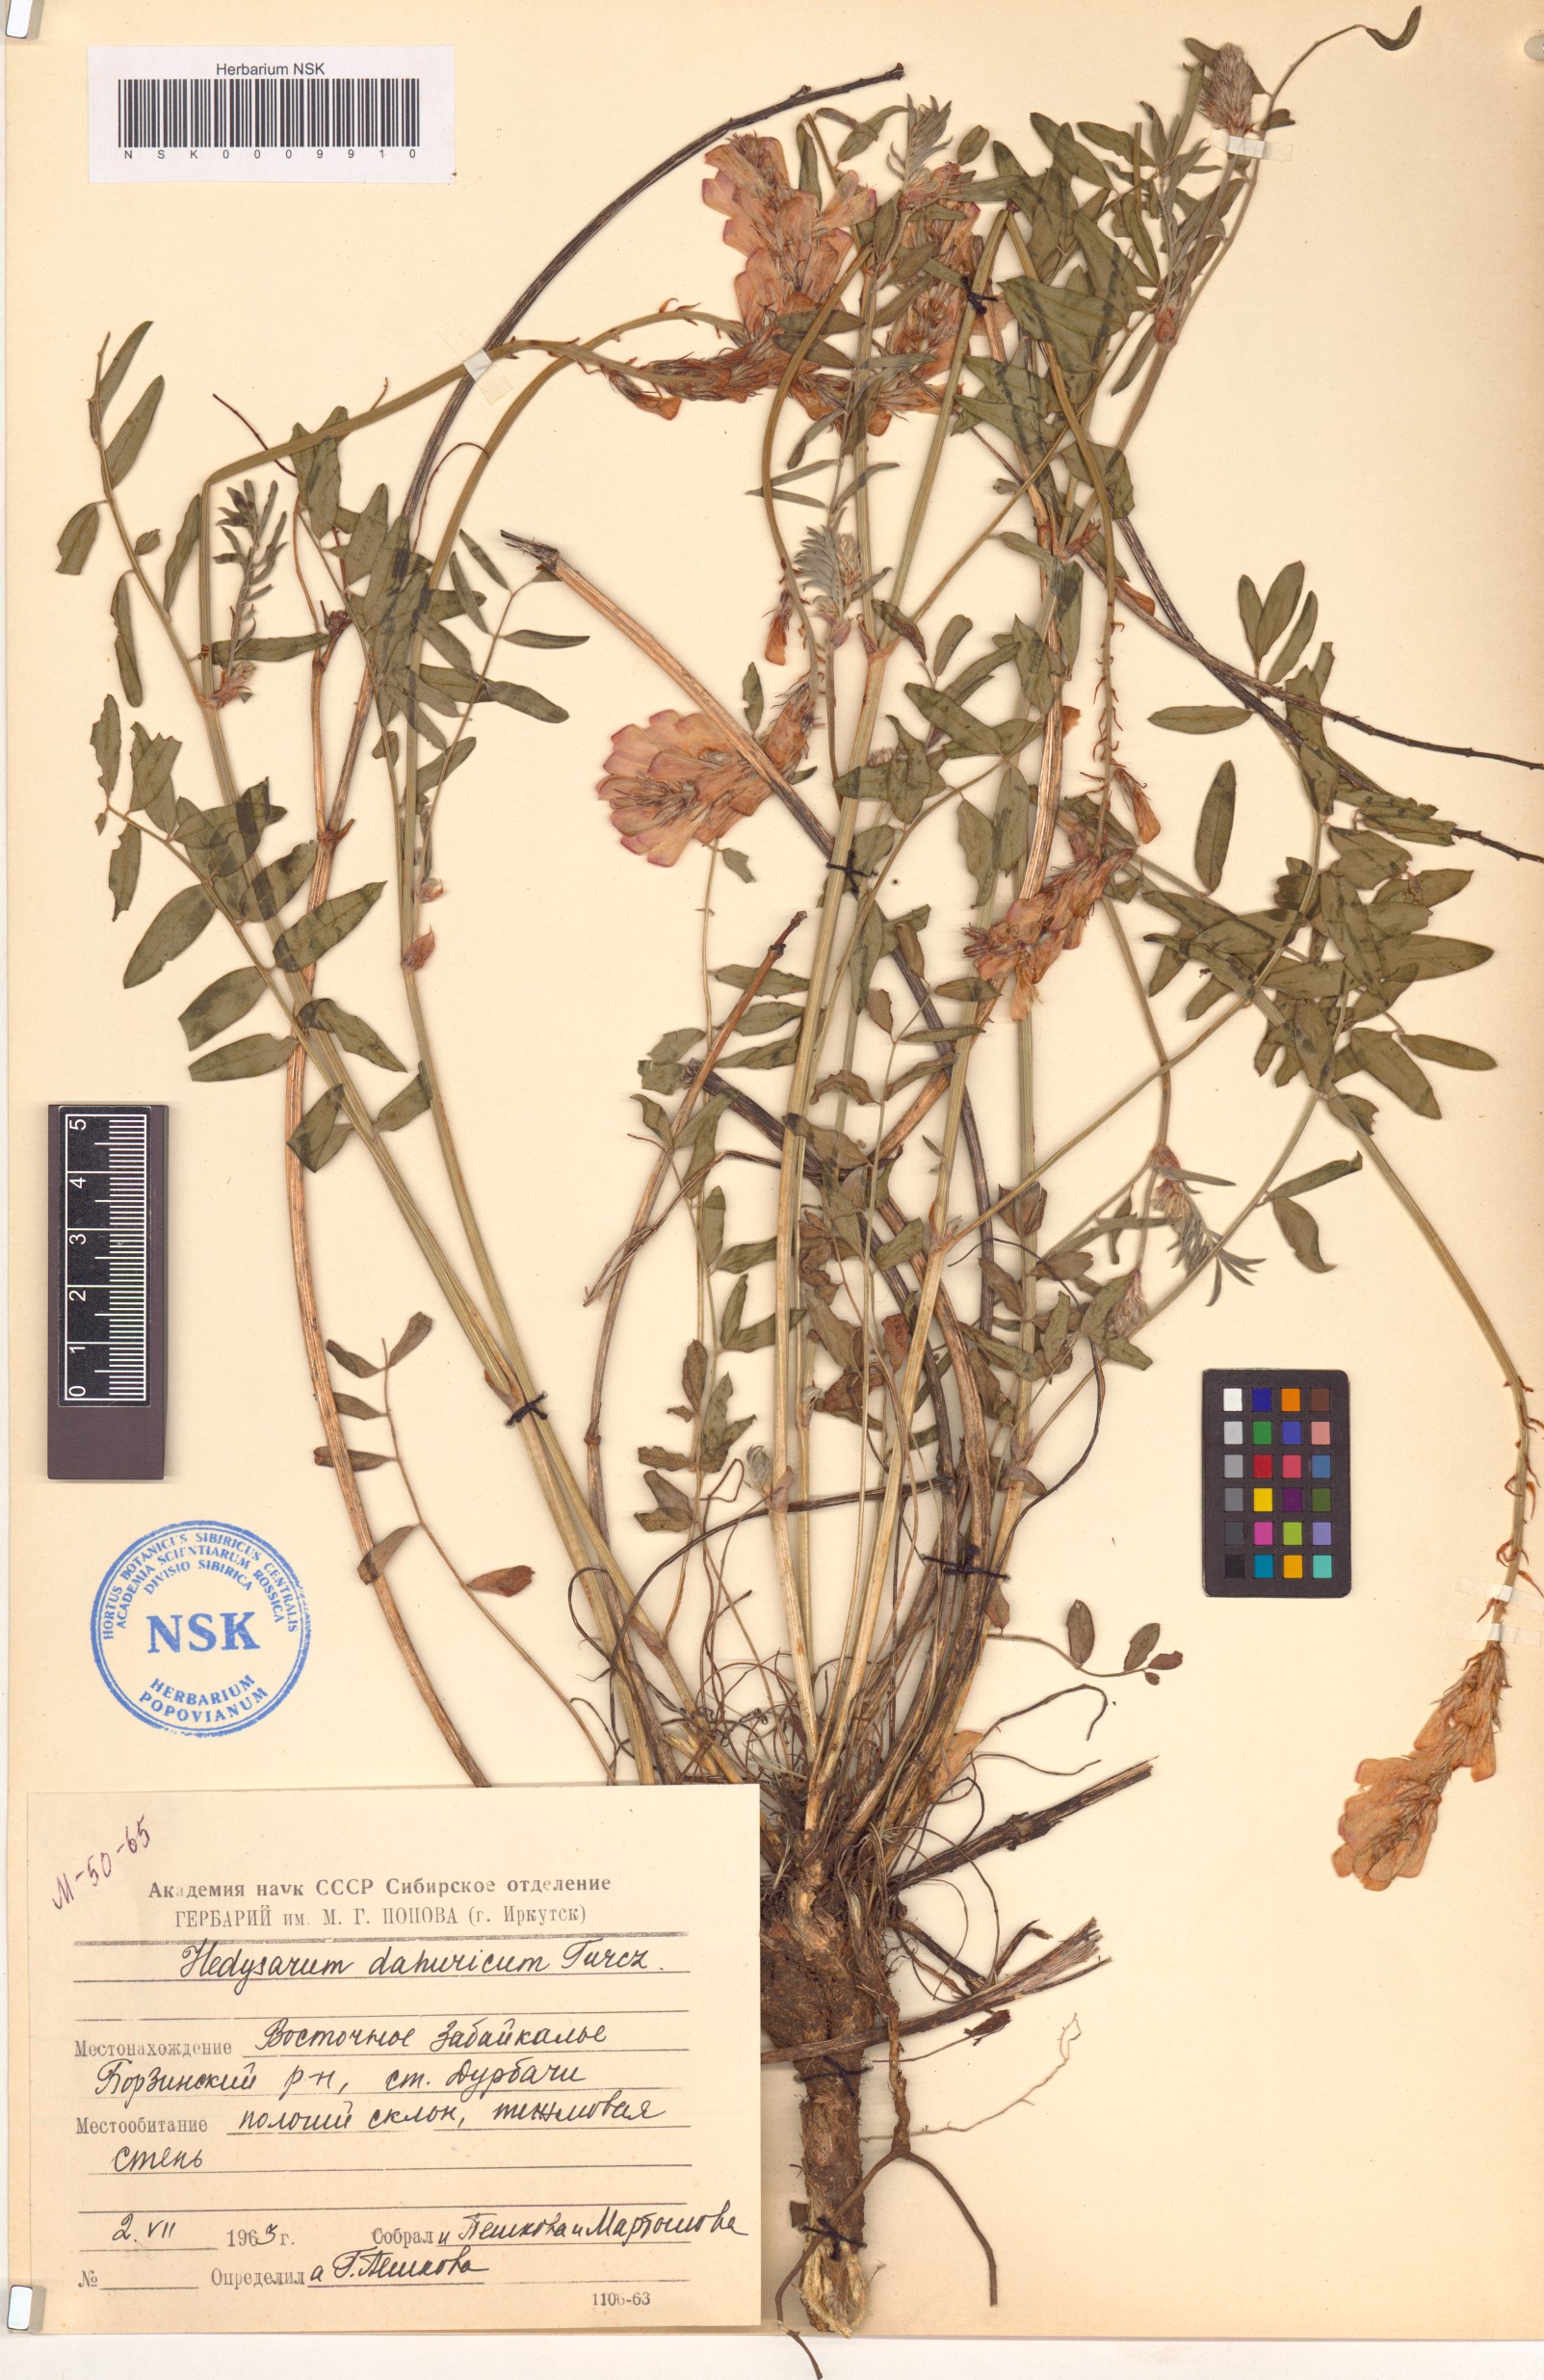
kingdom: Plantae
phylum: Tracheophyta
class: Magnoliopsida
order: Fabales
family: Fabaceae
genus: Hedysarum
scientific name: Hedysarum dahuricum
